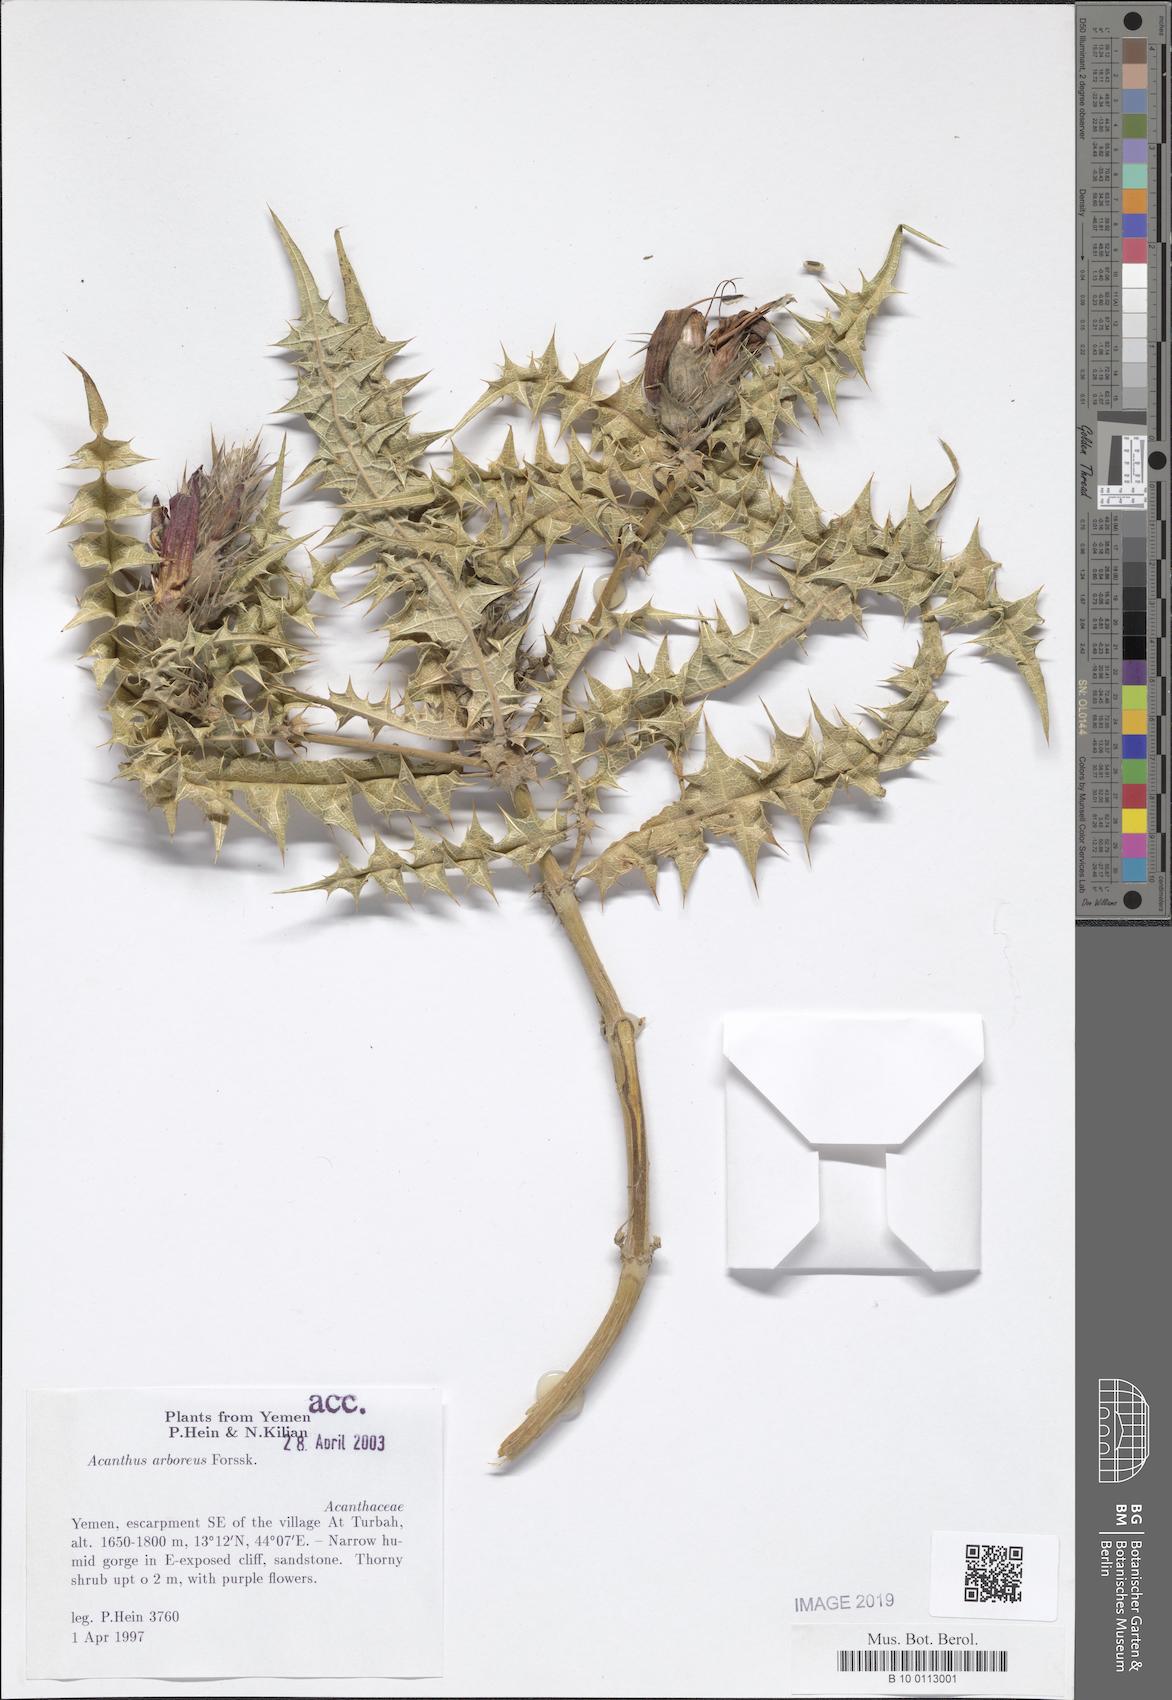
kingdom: Plantae
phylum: Tracheophyta
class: Magnoliopsida
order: Lamiales
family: Acanthaceae
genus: Acanthus
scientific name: Acanthus arboreus
